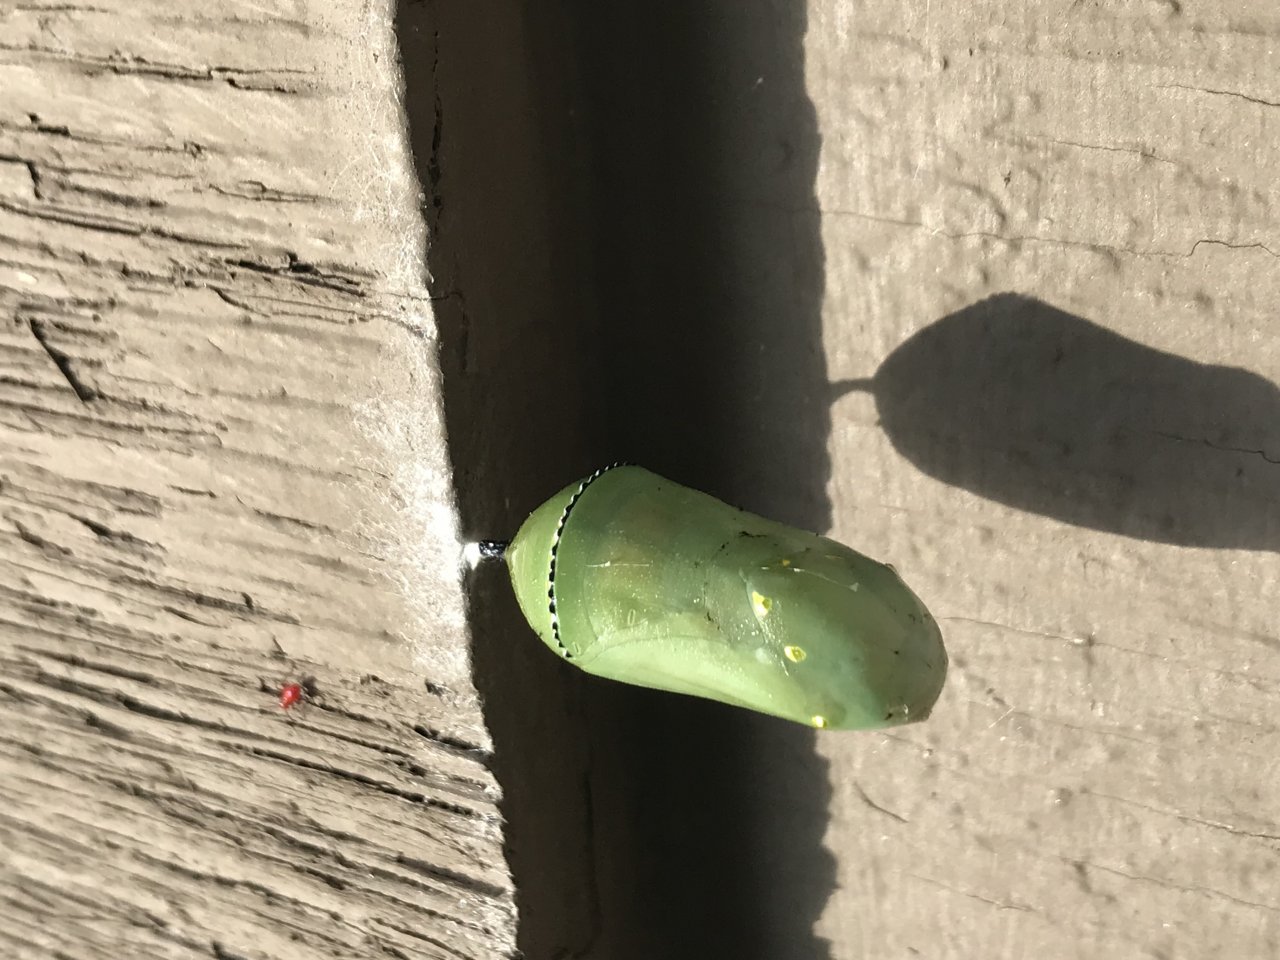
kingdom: Animalia
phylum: Arthropoda
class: Insecta
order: Lepidoptera
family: Nymphalidae
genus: Danaus
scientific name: Danaus plexippus
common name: Monarch
